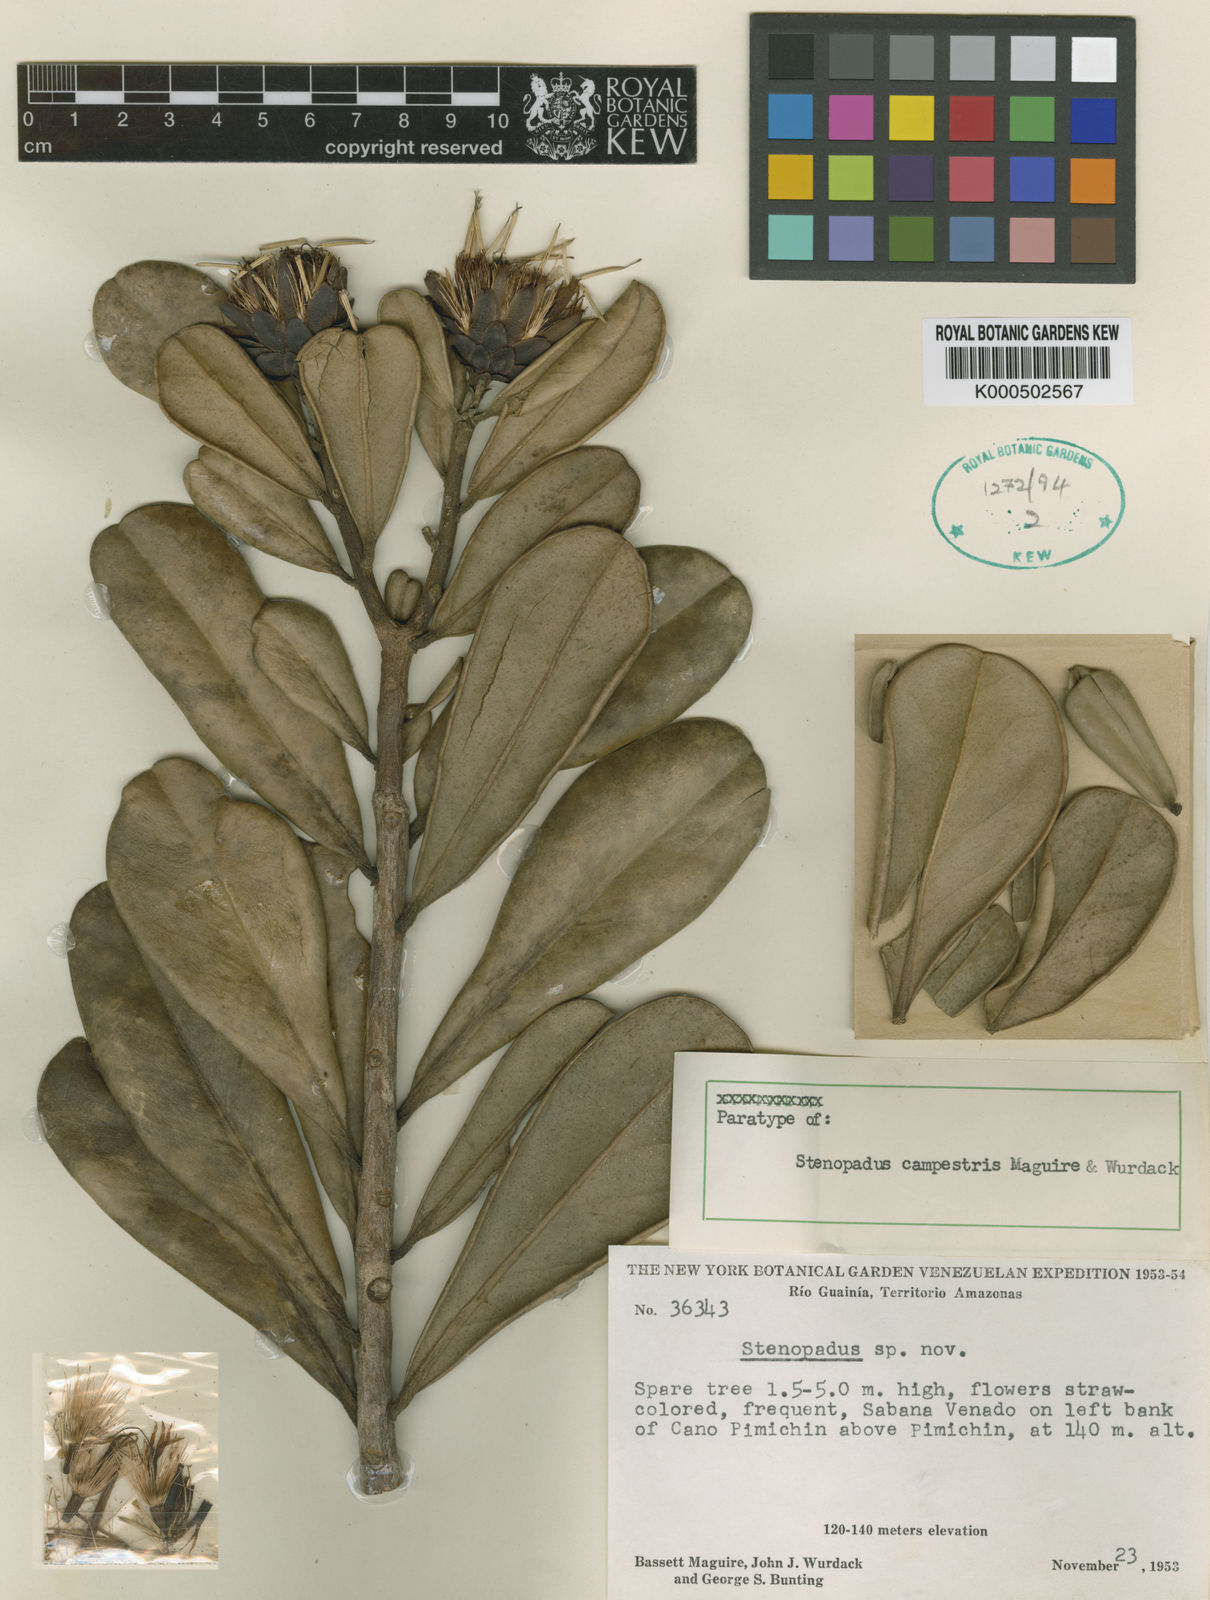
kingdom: Plantae
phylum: Tracheophyta
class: Magnoliopsida
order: Asterales
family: Asteraceae
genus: Stenopadus
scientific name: Stenopadus campestris
